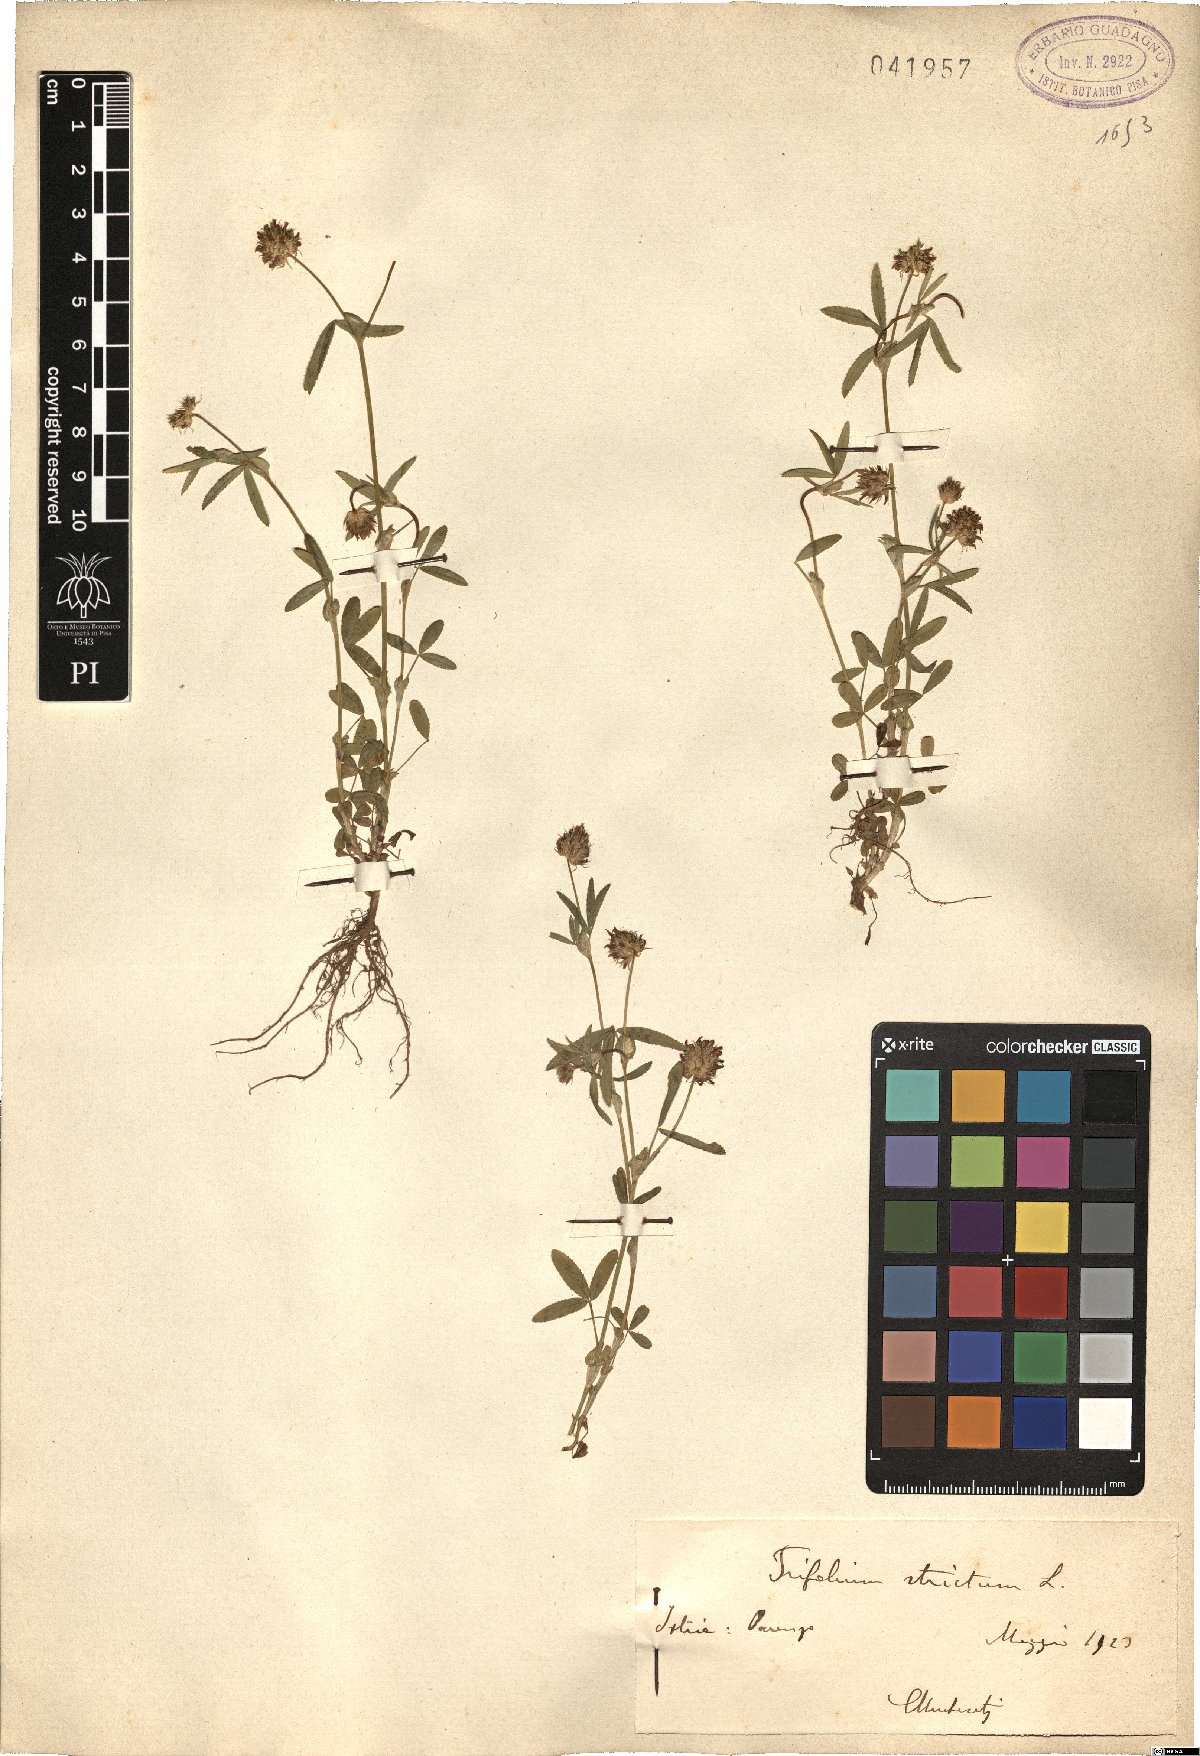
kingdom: Plantae
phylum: Tracheophyta
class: Magnoliopsida
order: Fabales
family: Fabaceae
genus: Trifolium
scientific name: Trifolium strictum
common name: Upright clover
